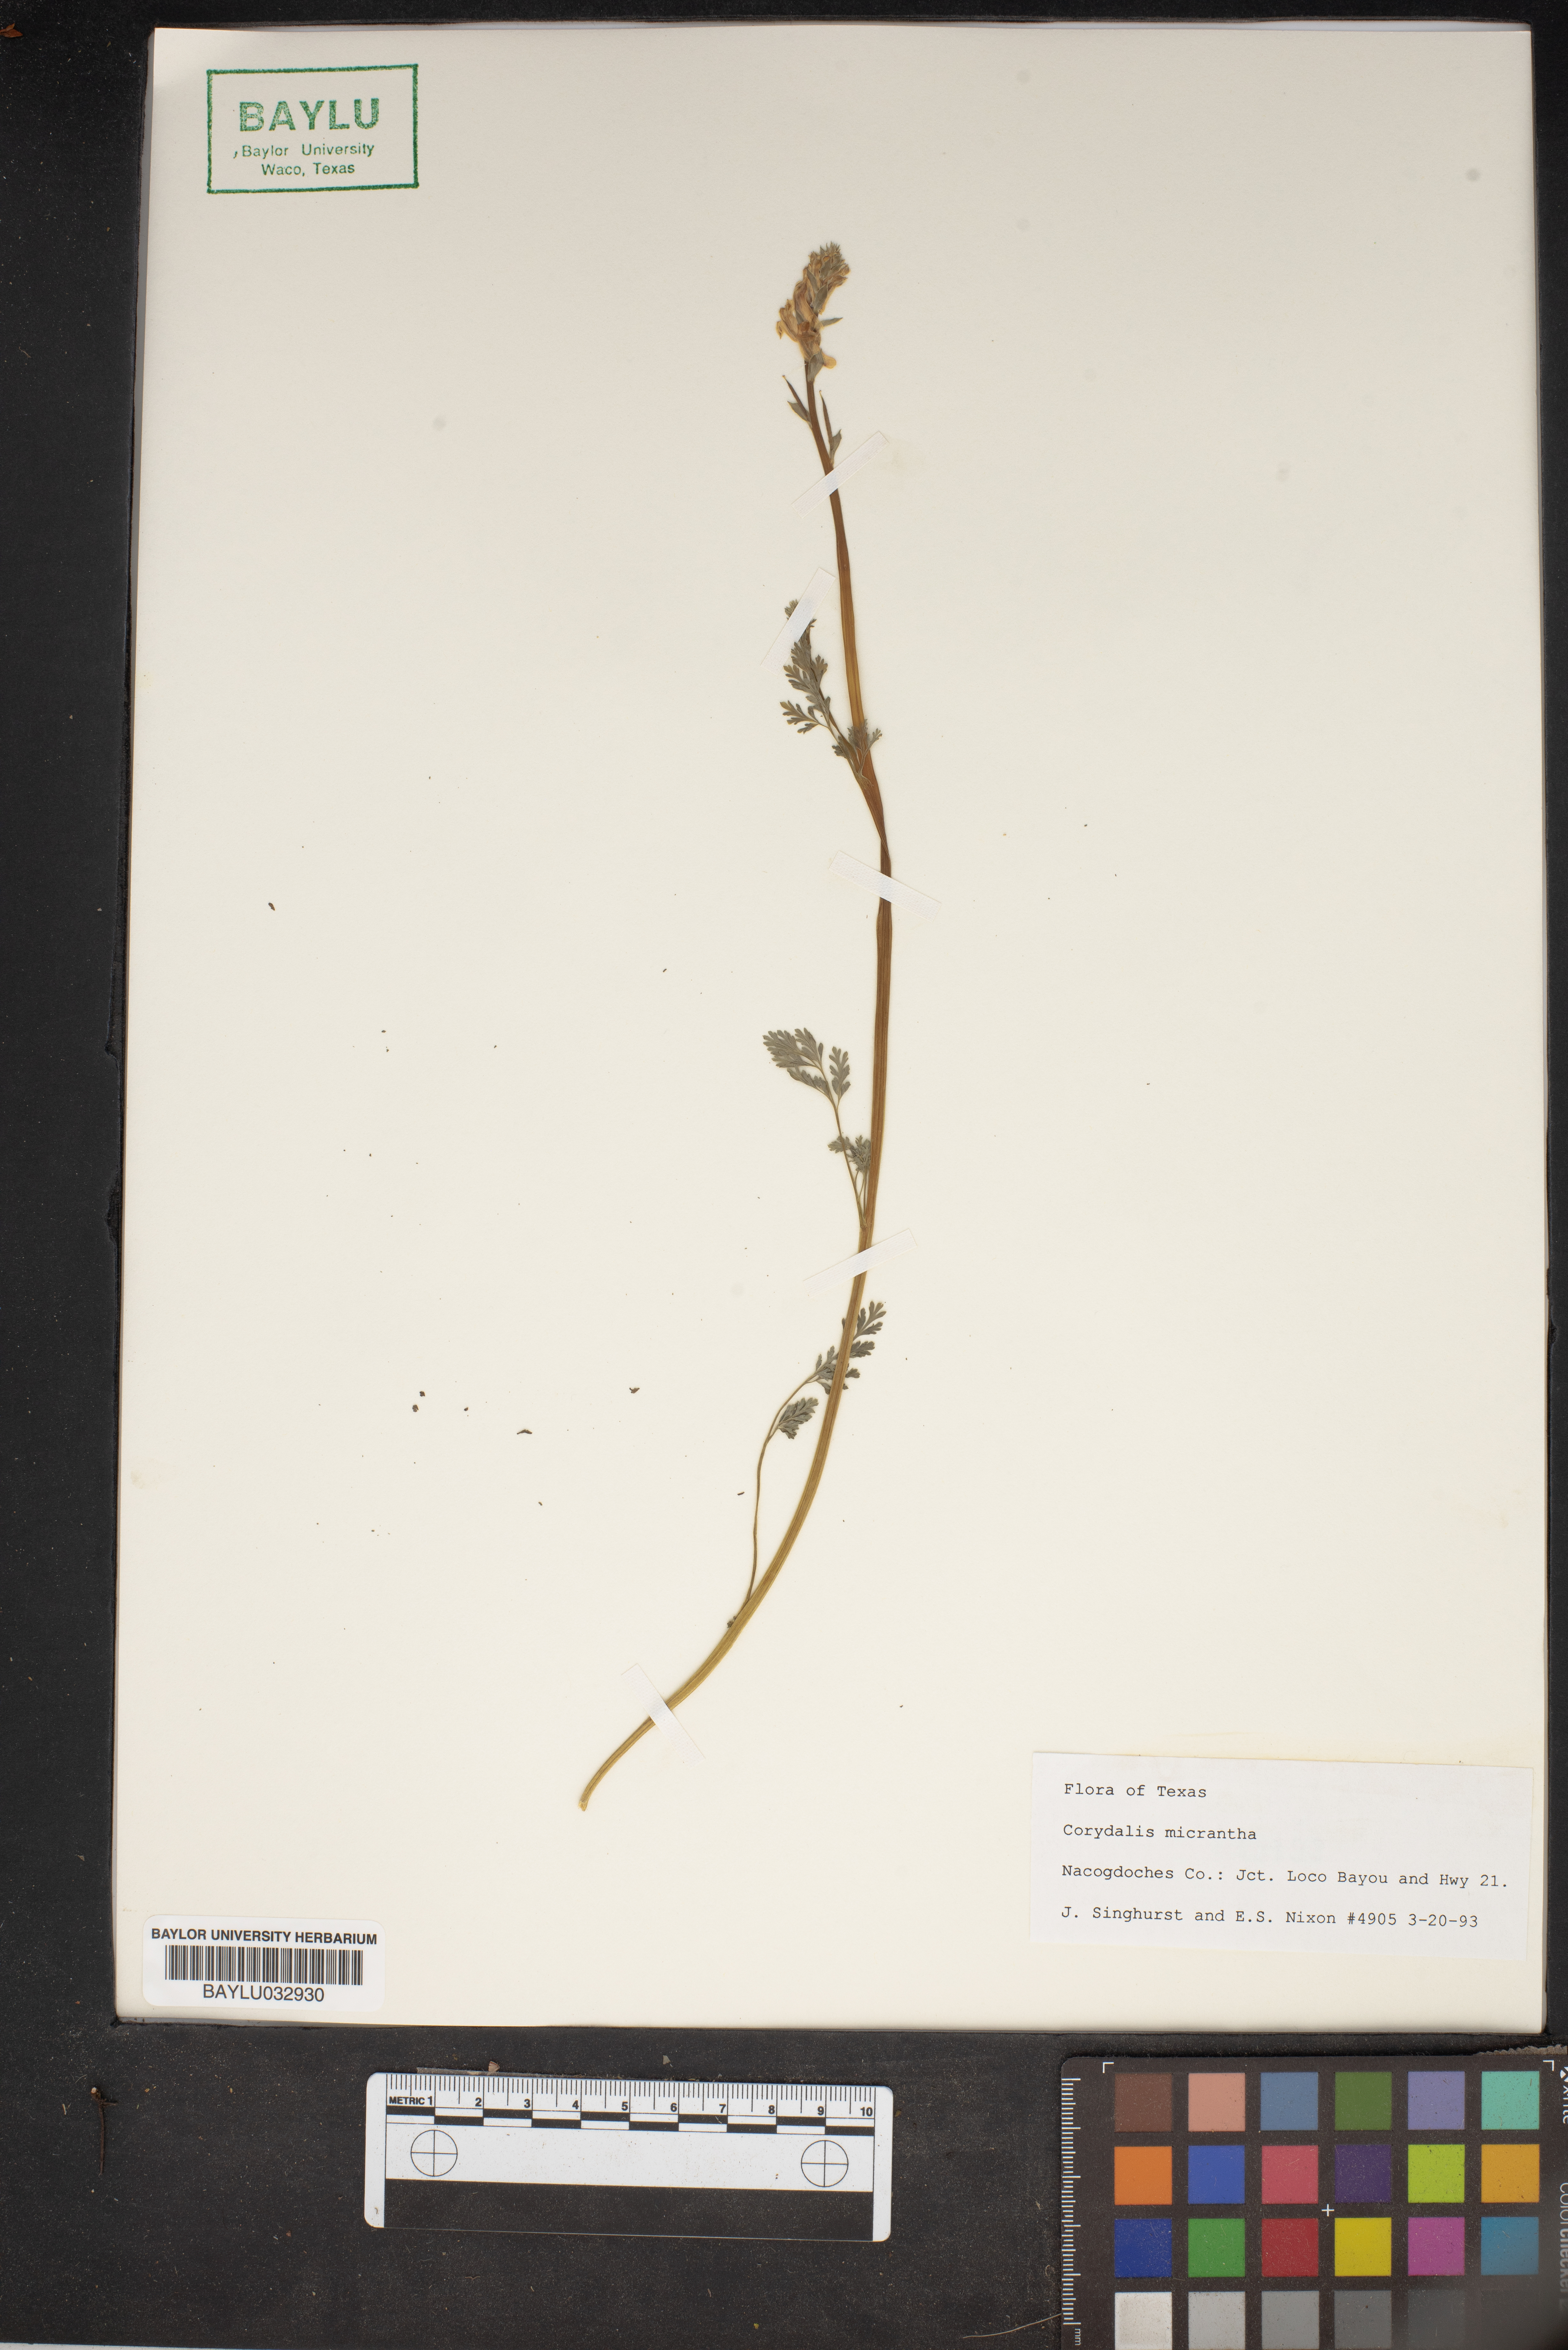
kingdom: Plantae
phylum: Tracheophyta
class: Magnoliopsida
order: Ranunculales
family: Papaveraceae
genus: Corydalis
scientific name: Corydalis micrantha
